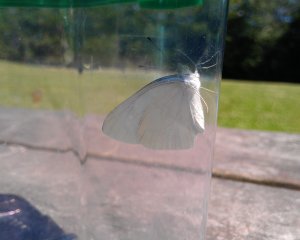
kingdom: Animalia
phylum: Arthropoda
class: Insecta
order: Lepidoptera
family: Pieridae
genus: Pieris
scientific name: Pieris oleracea
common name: Mustard White
